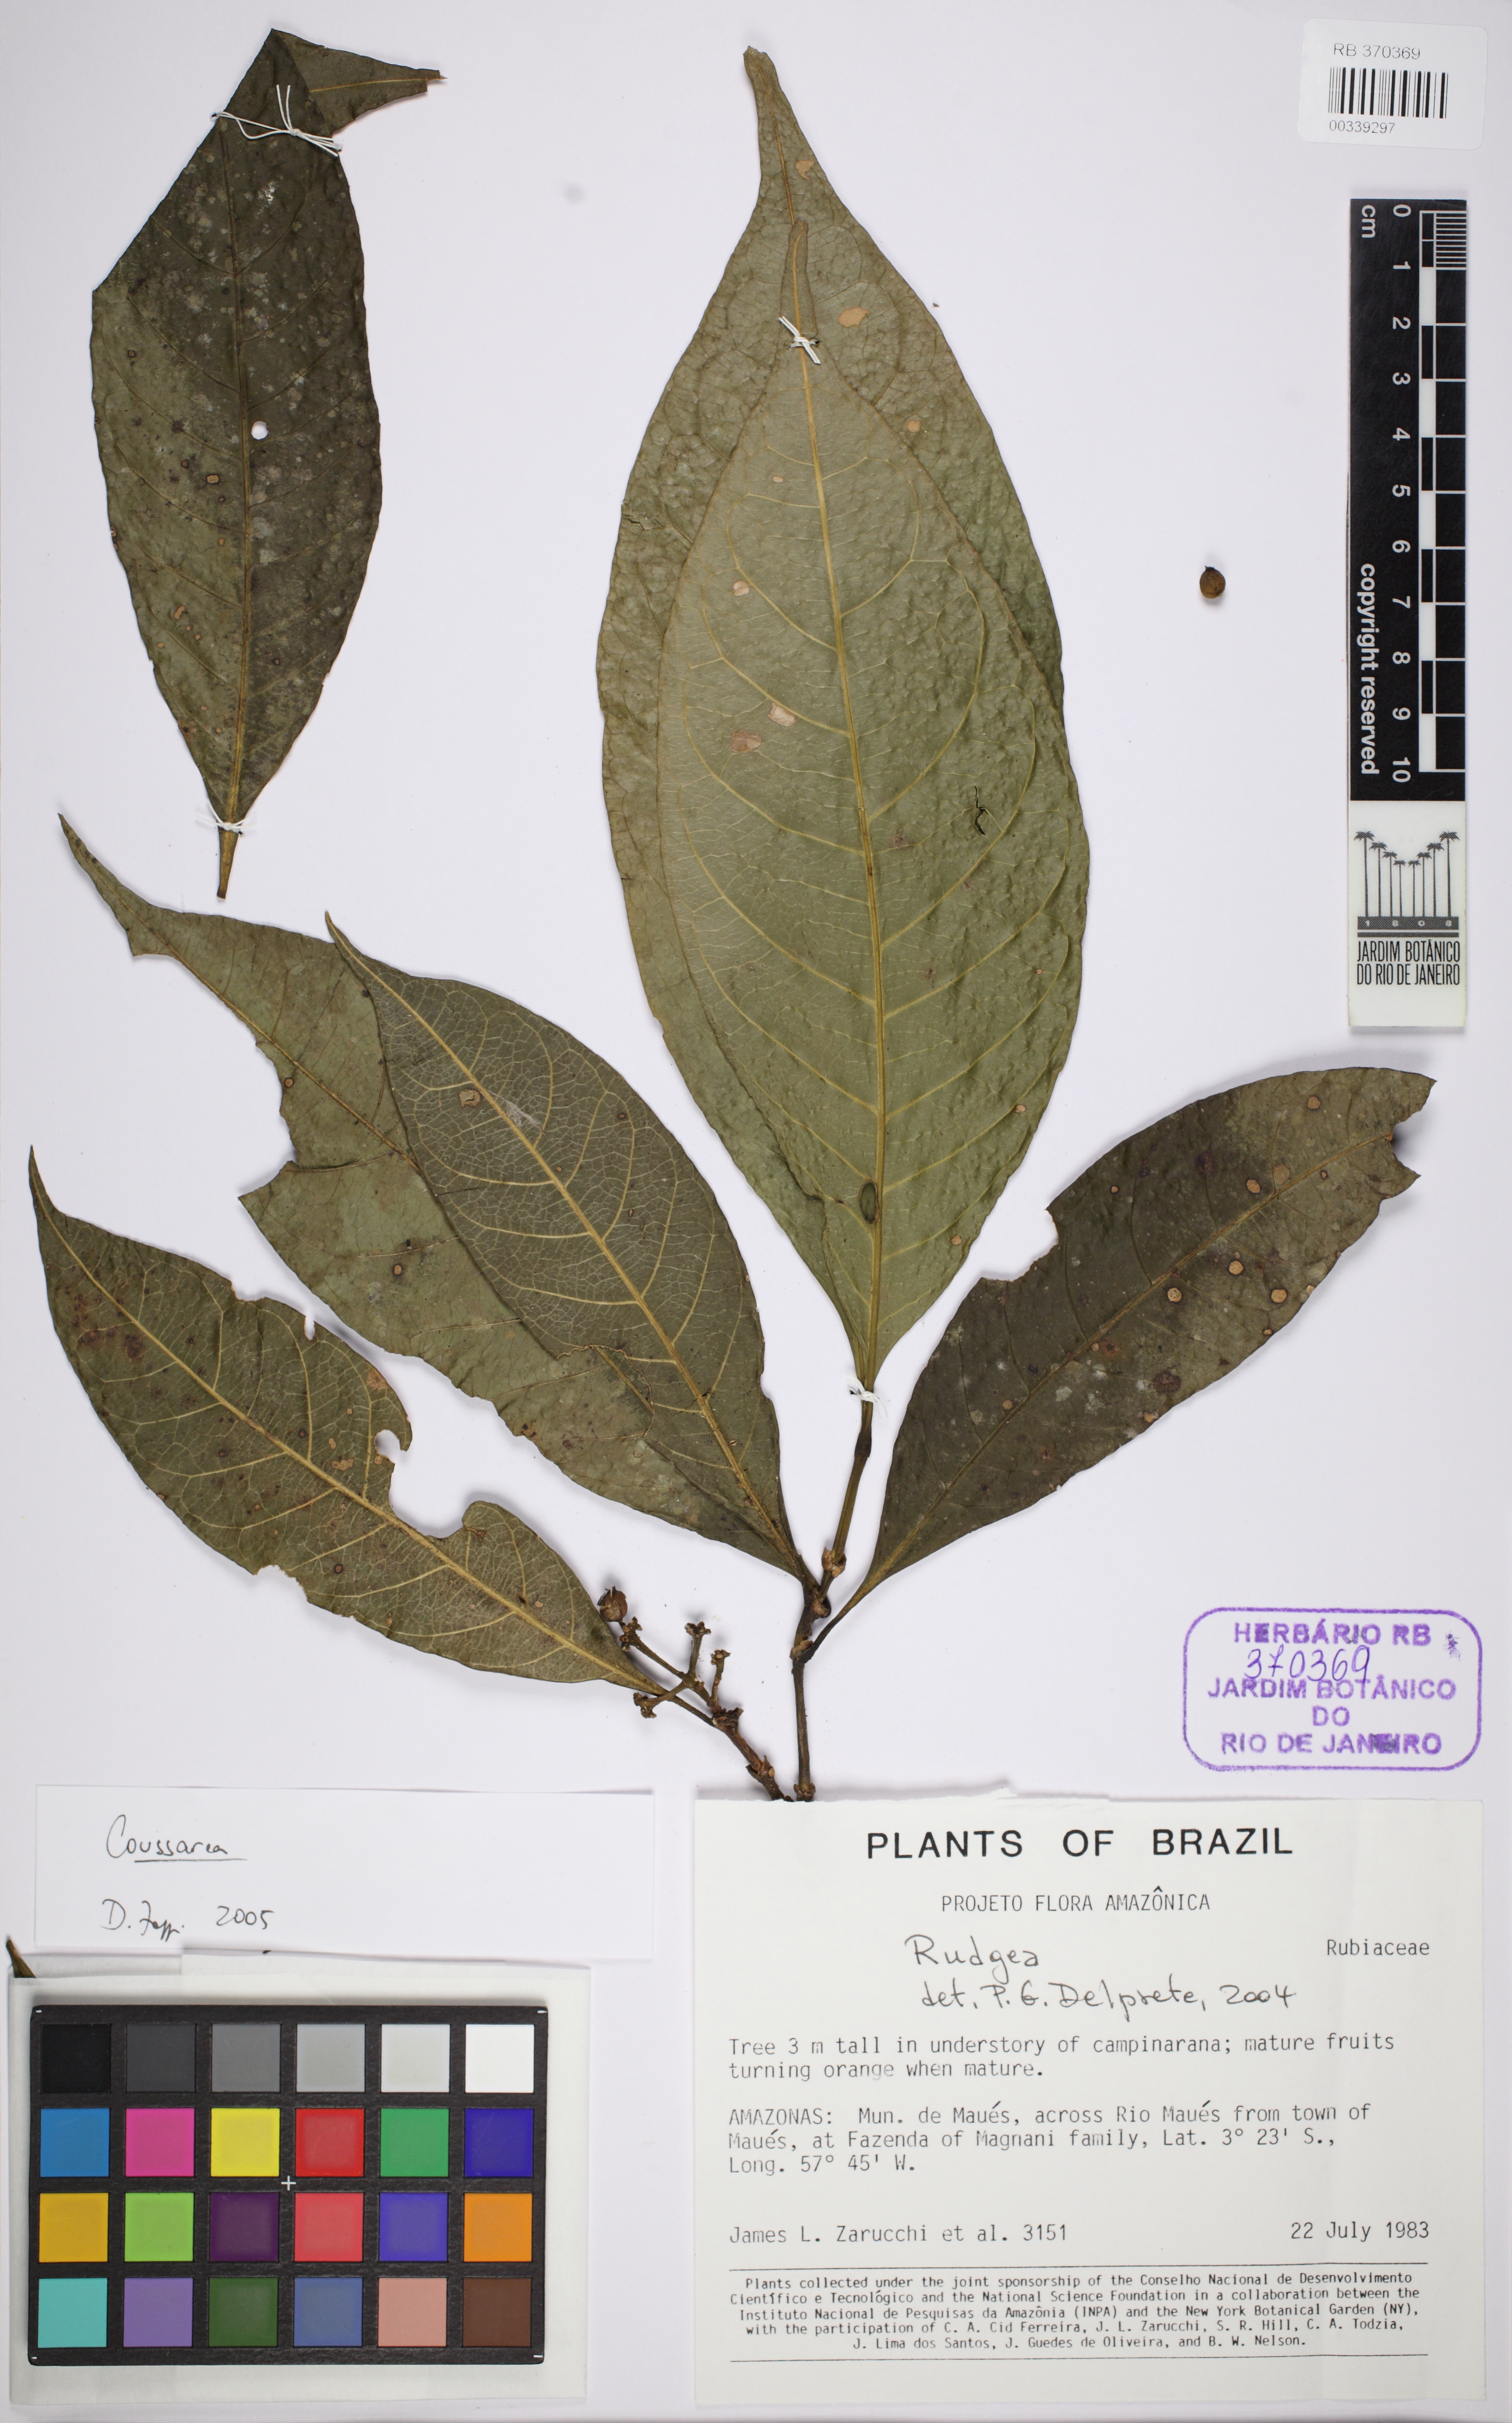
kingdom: Plantae
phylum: Tracheophyta
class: Magnoliopsida
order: Gentianales
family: Rubiaceae
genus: Rudgea
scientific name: Rudgea
